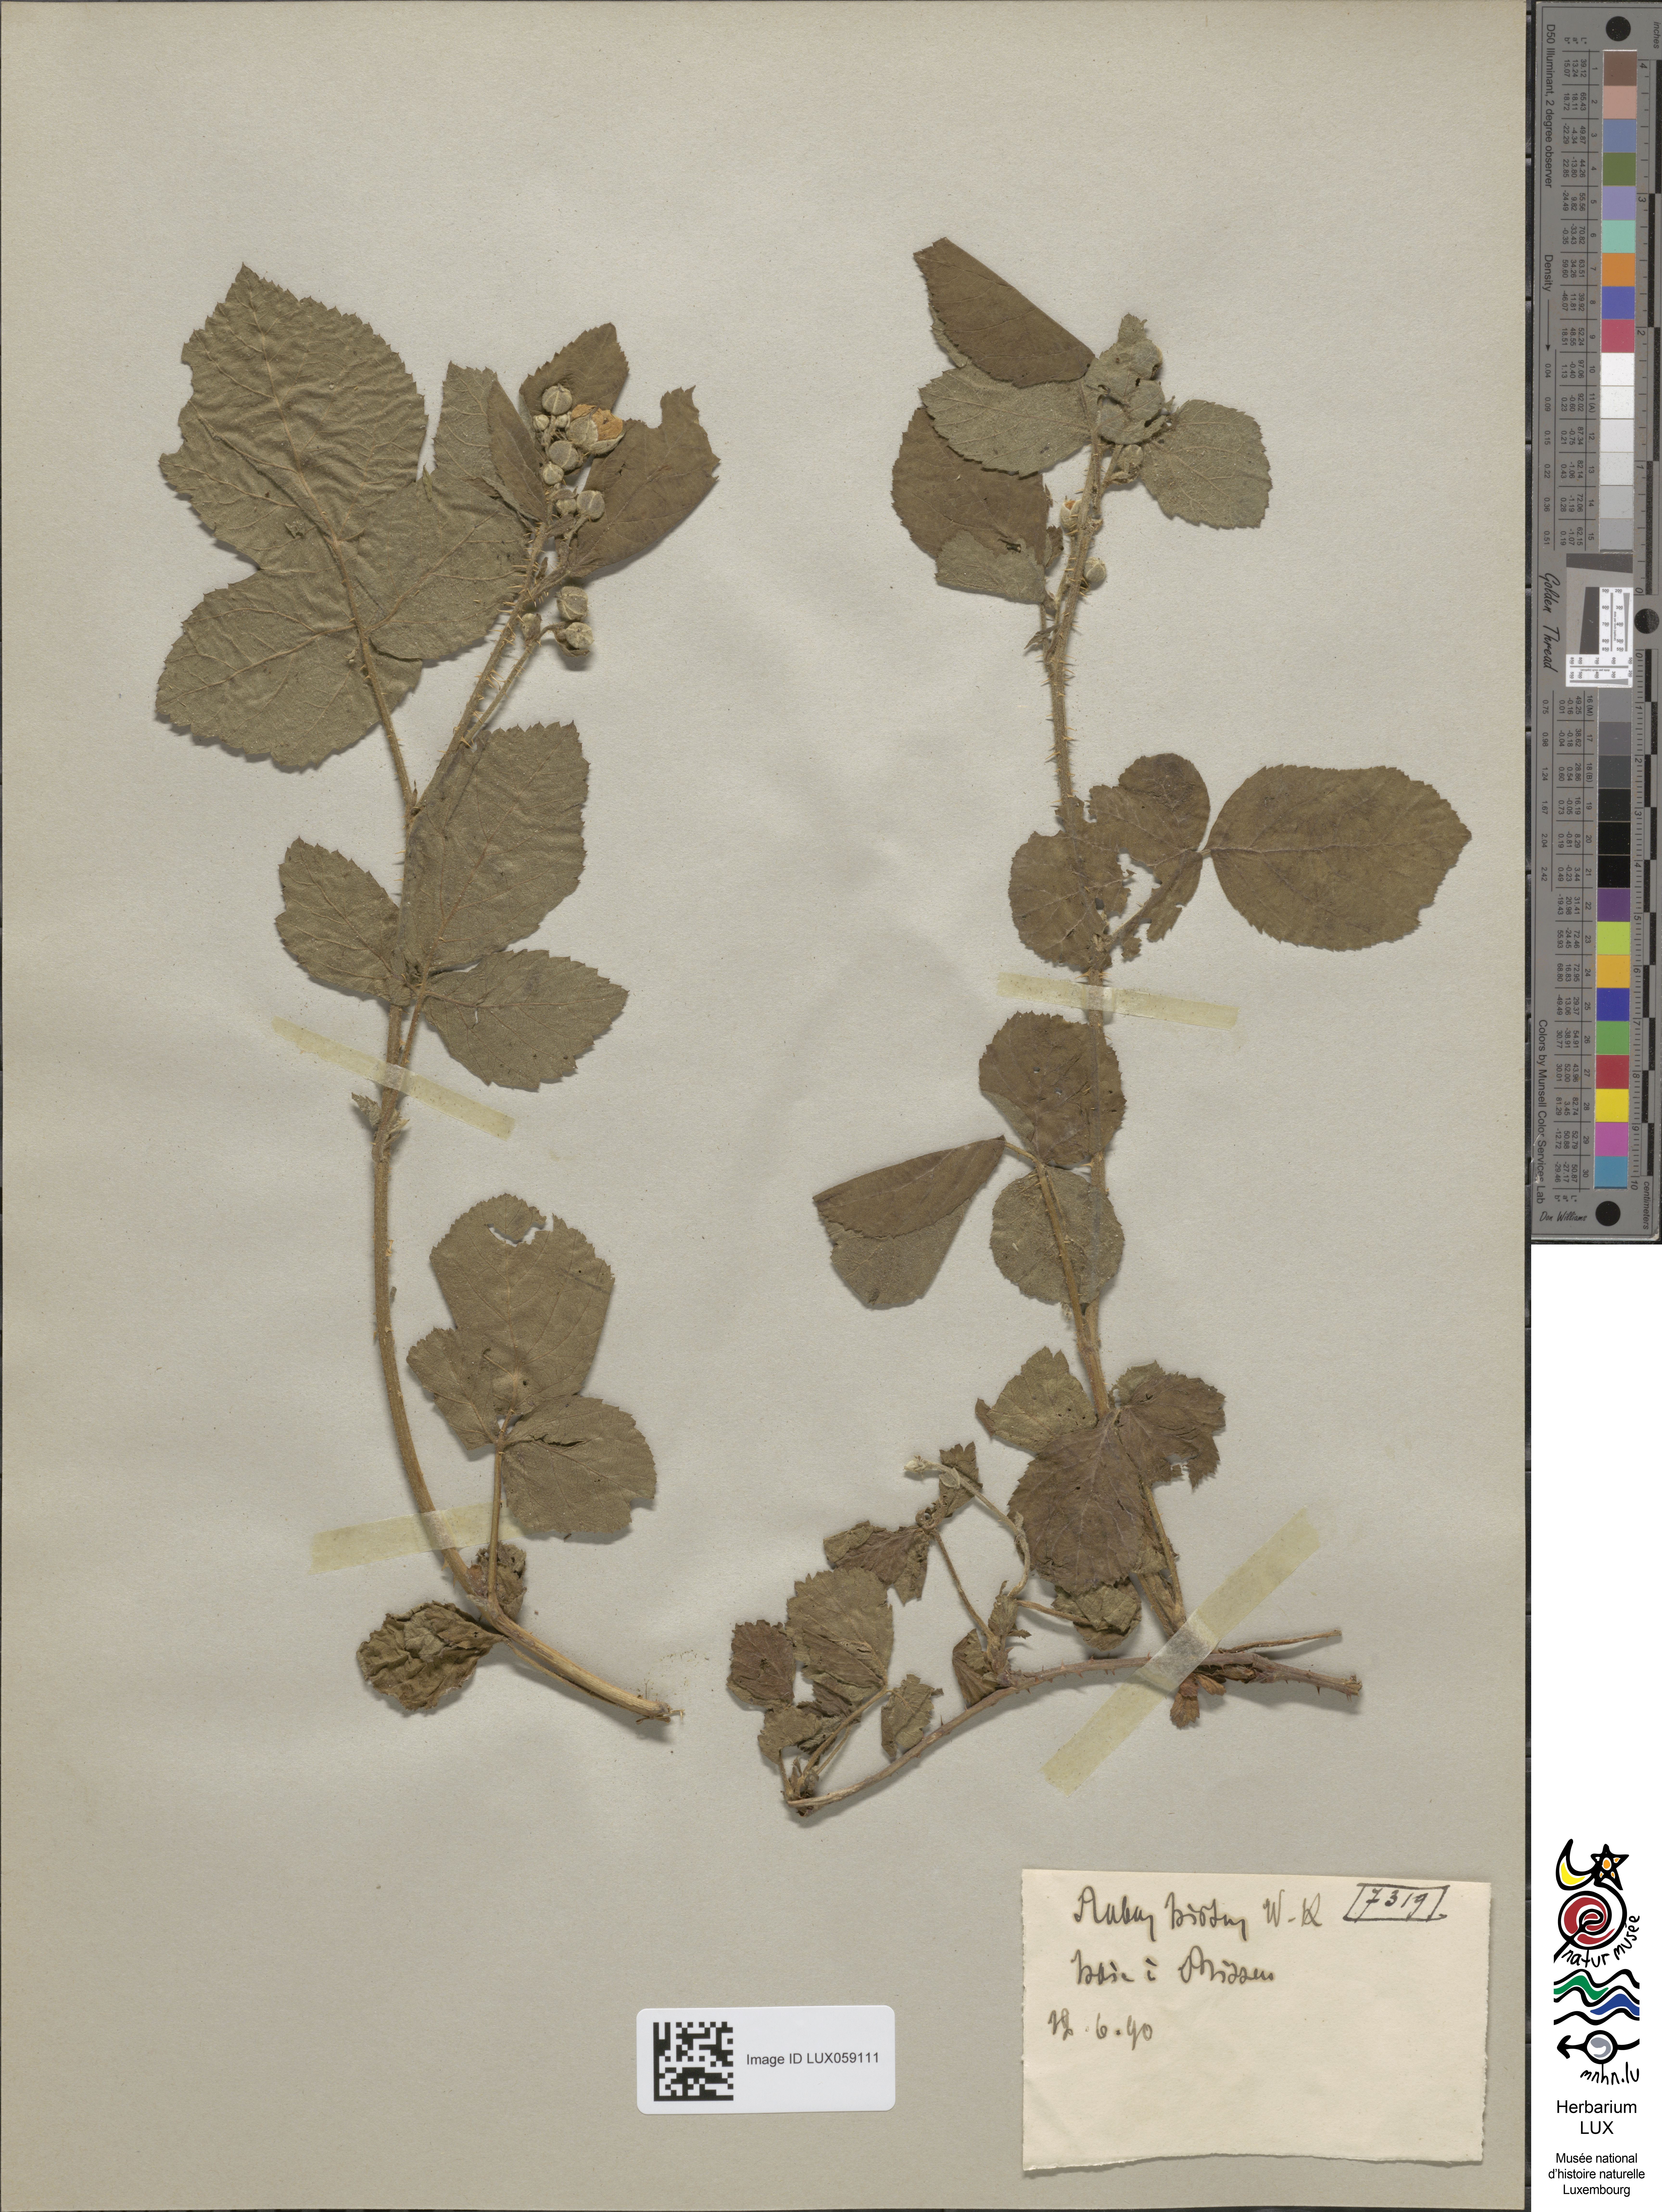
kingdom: Plantae
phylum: Tracheophyta
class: Magnoliopsida
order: Rosales
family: Rosaceae
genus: Rubus
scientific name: Rubus hirtus
